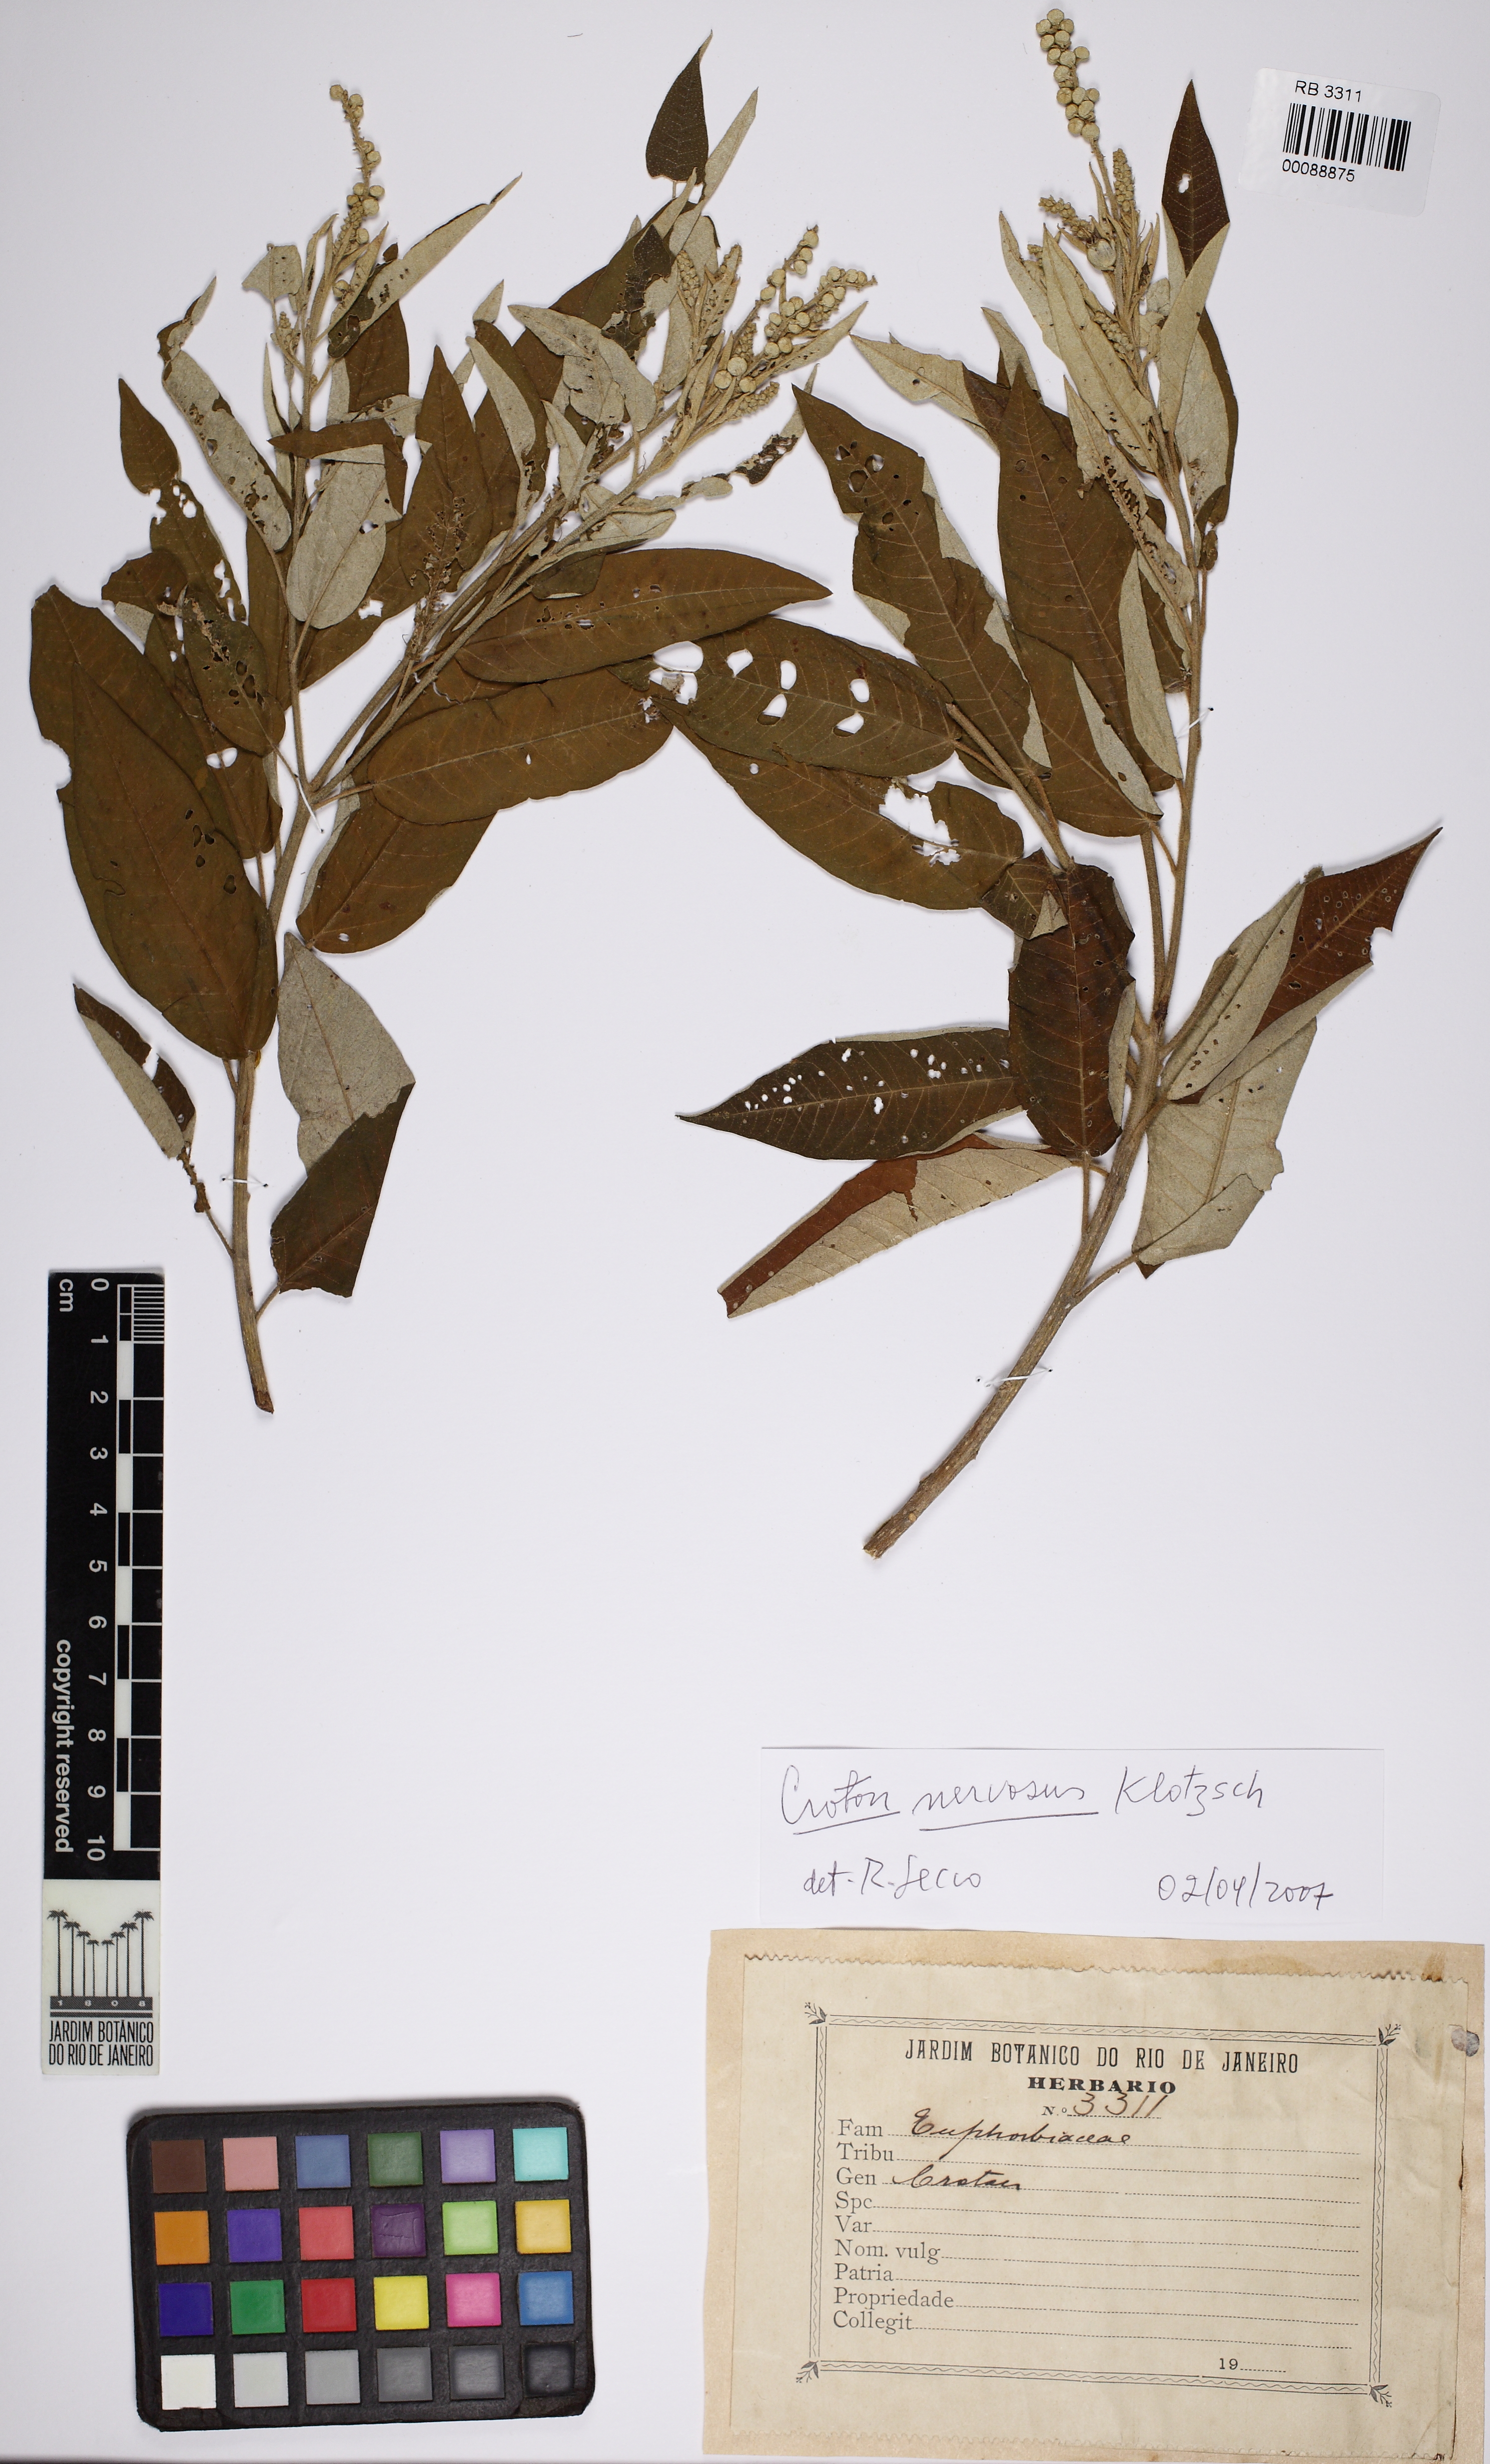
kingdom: Plantae
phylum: Tracheophyta
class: Magnoliopsida
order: Malpighiales
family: Euphorbiaceae
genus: Caperonia
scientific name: Caperonia castaneifolia
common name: Chestnutleaf false croton
